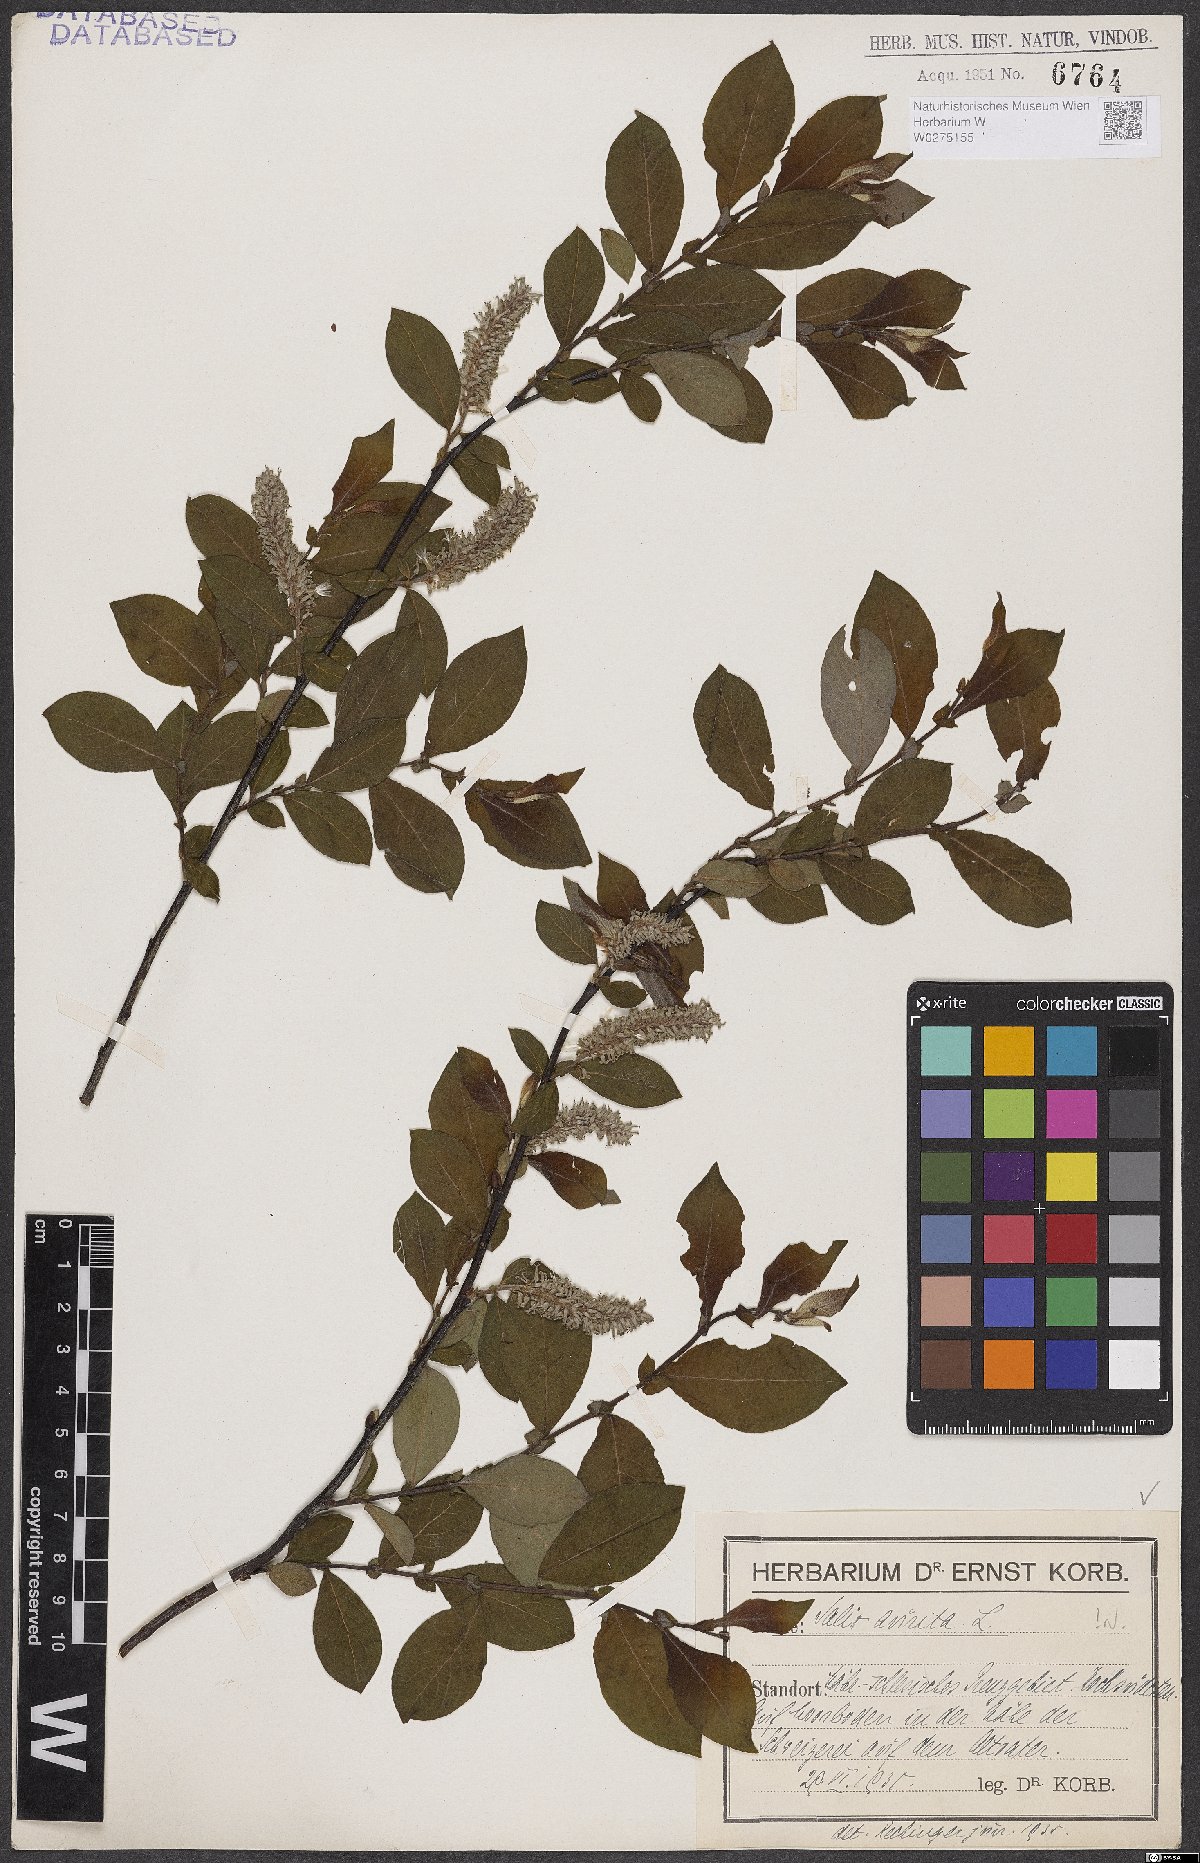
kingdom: Plantae
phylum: Tracheophyta
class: Magnoliopsida
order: Malpighiales
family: Salicaceae
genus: Salix
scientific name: Salix aurita
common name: Eared willow
